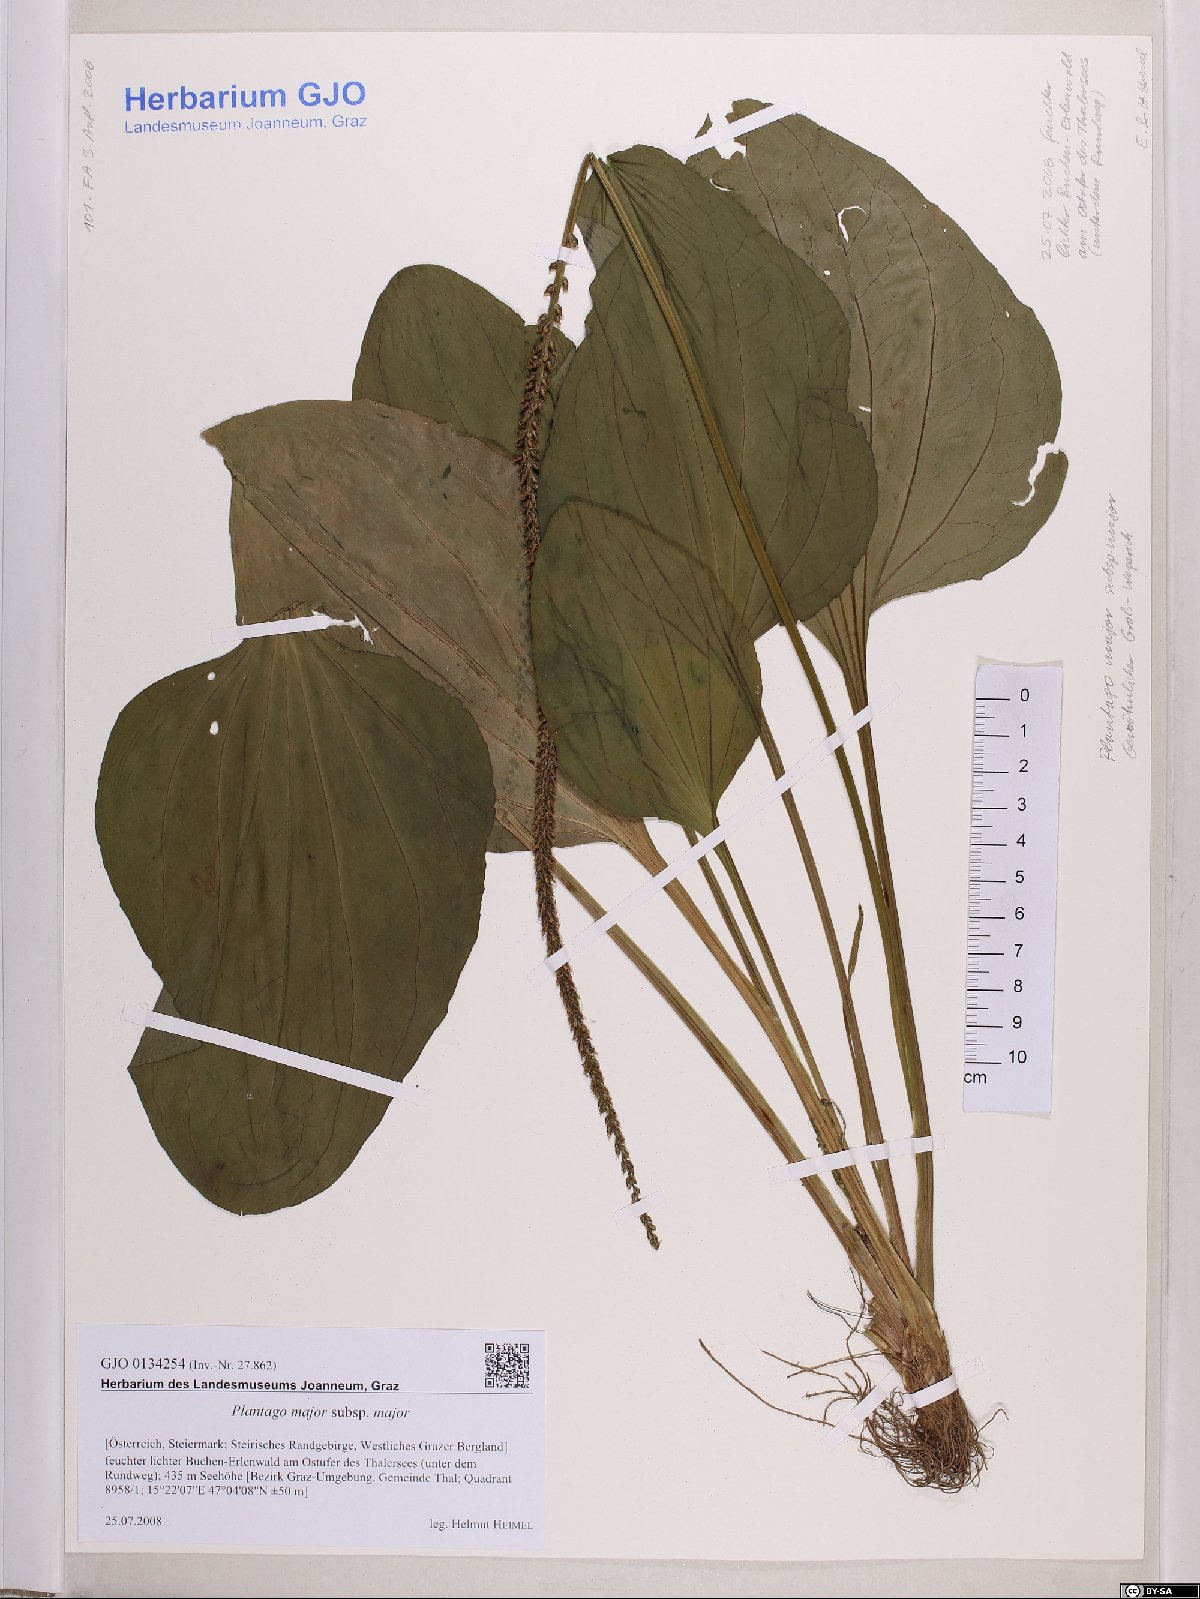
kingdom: Plantae
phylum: Tracheophyta
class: Magnoliopsida
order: Lamiales
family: Plantaginaceae
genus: Plantago
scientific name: Plantago major
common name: Common plantain
